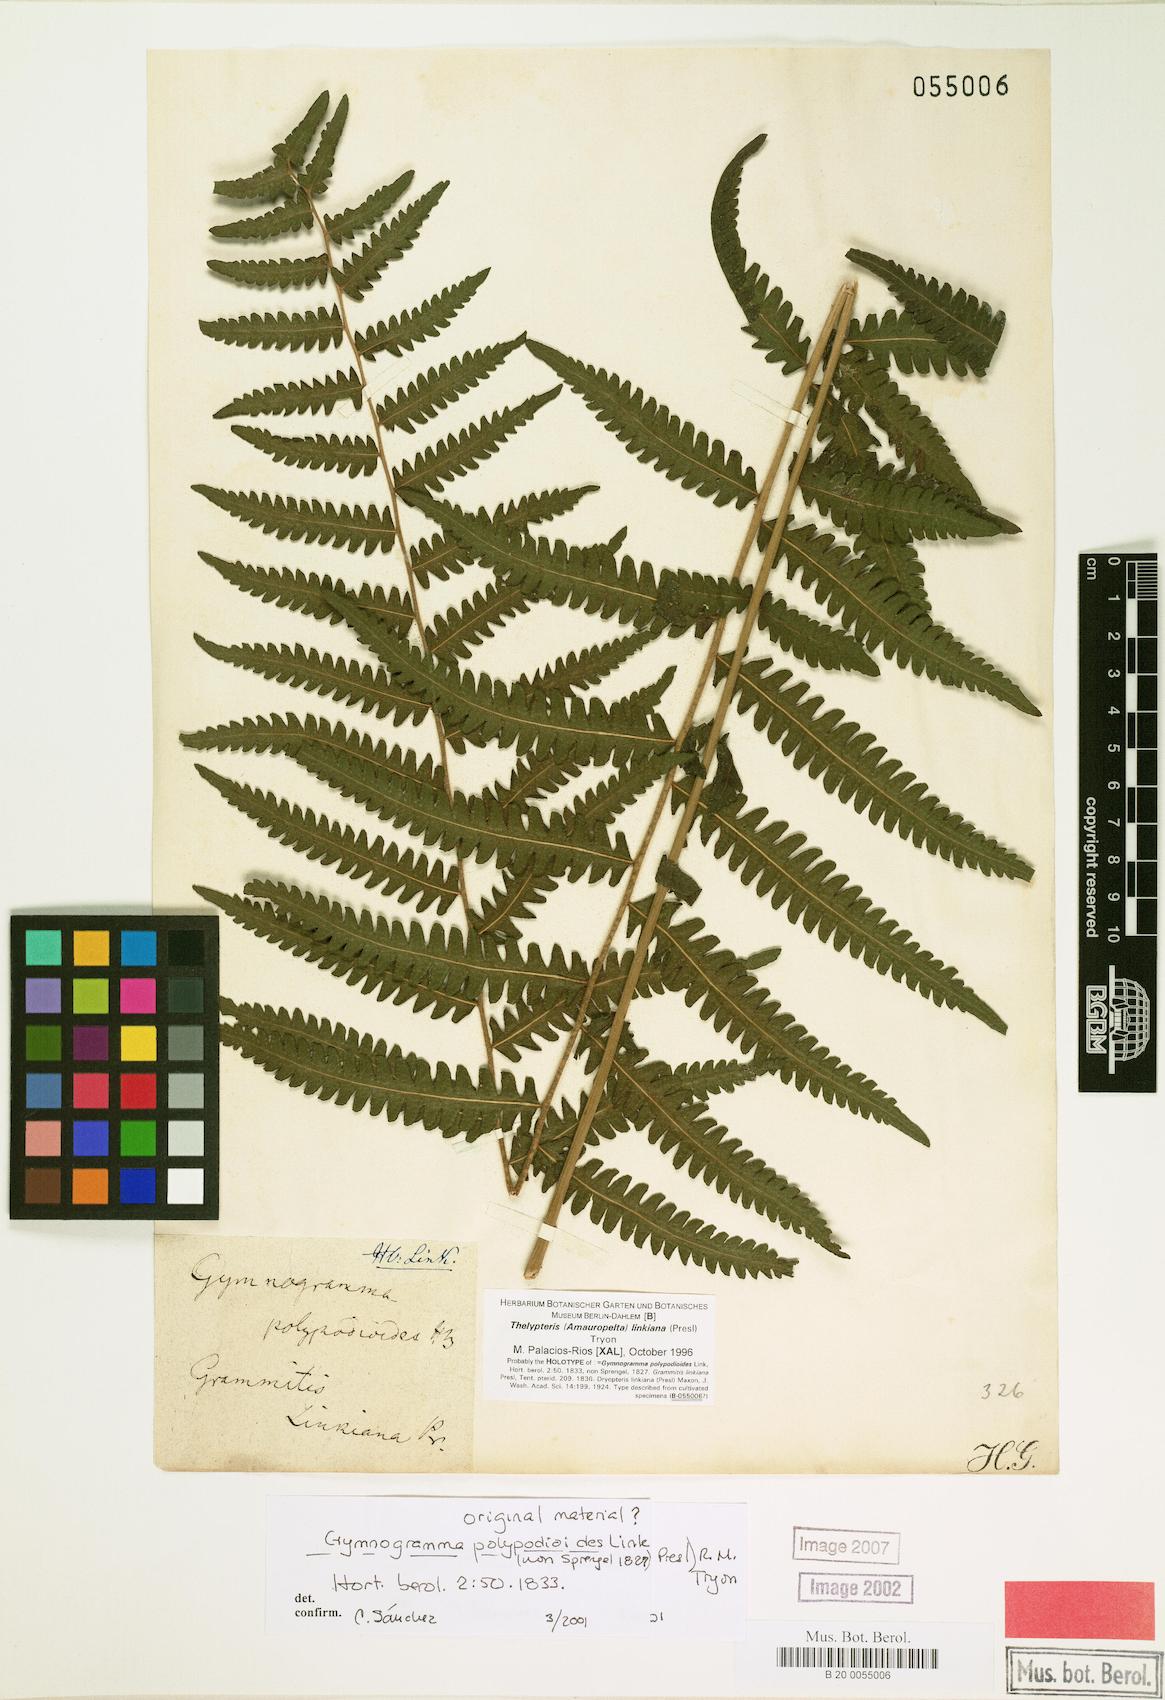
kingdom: Plantae
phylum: Tracheophyta
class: Polypodiopsida
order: Polypodiales
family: Thelypteridaceae
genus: Amauropelta
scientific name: Amauropelta diplazioides
